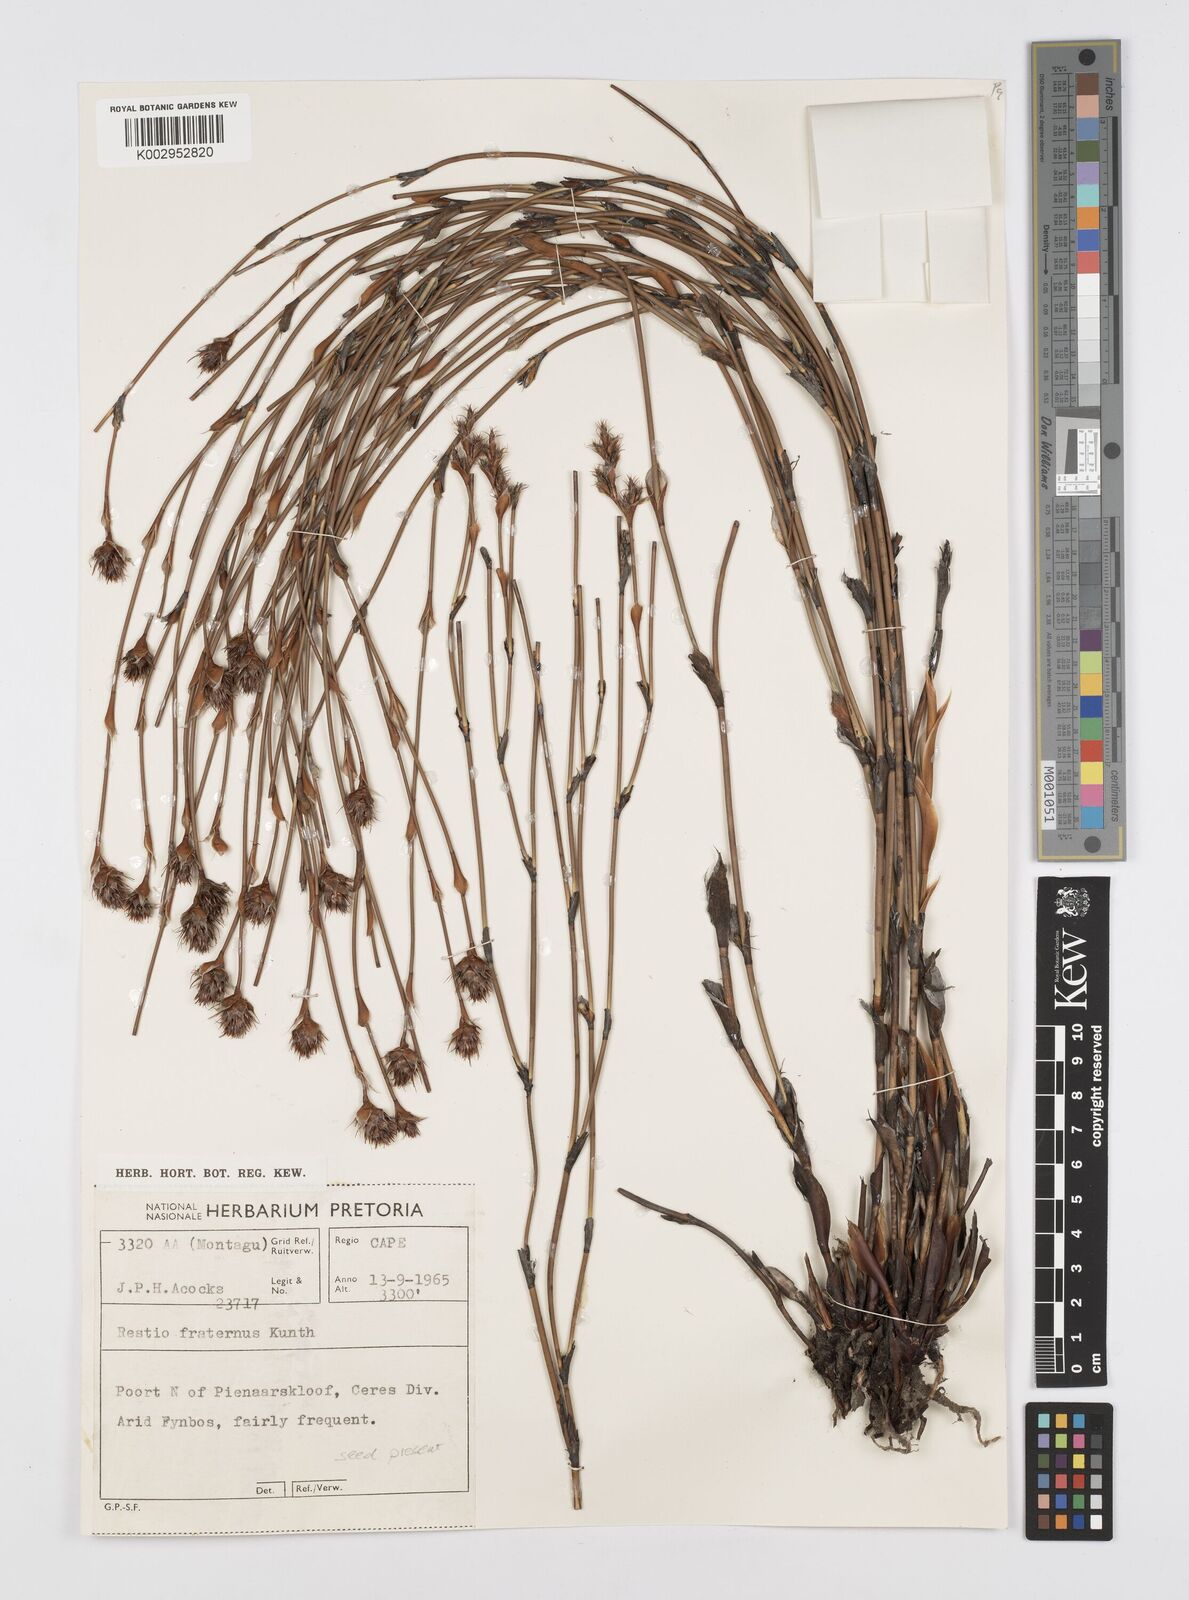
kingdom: Plantae
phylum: Tracheophyta
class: Liliopsida
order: Poales
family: Restionaceae
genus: Restio
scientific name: Restio ocreatus
